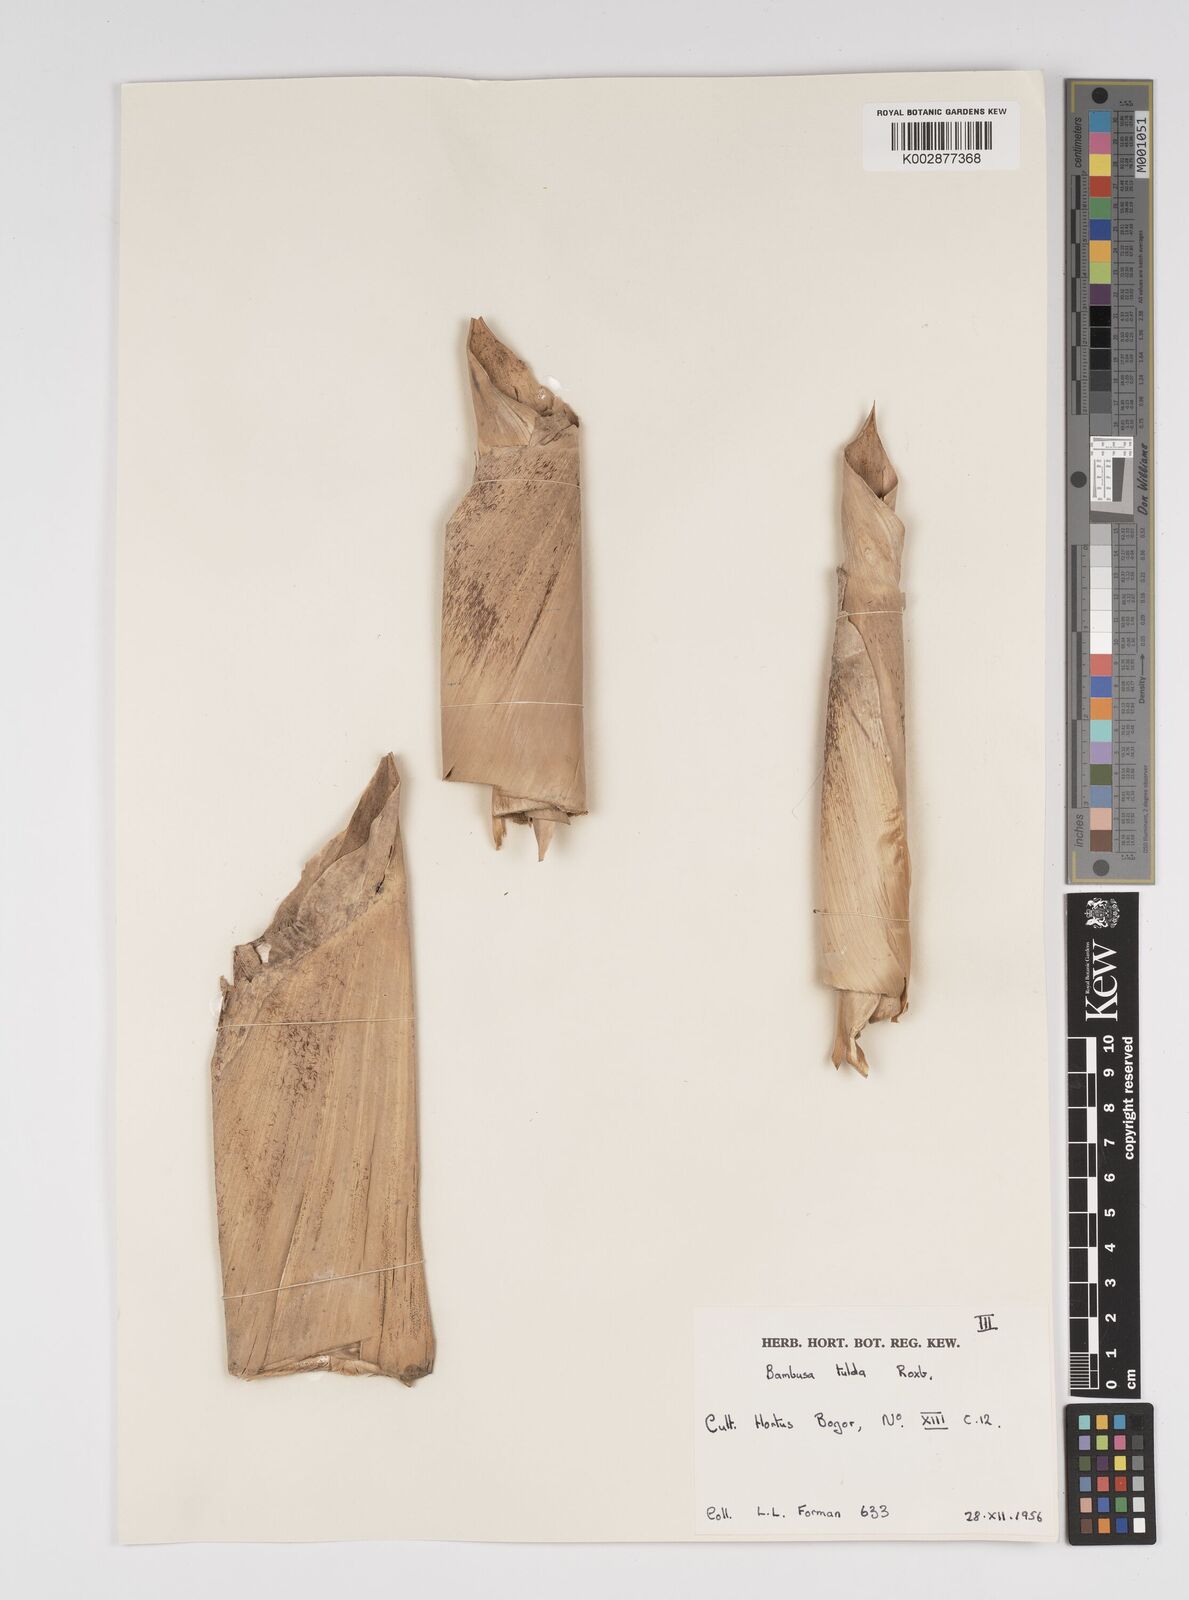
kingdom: Plantae
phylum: Tracheophyta
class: Liliopsida
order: Poales
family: Poaceae
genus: Bambusa
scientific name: Bambusa tulda
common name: Bengal bamboo
